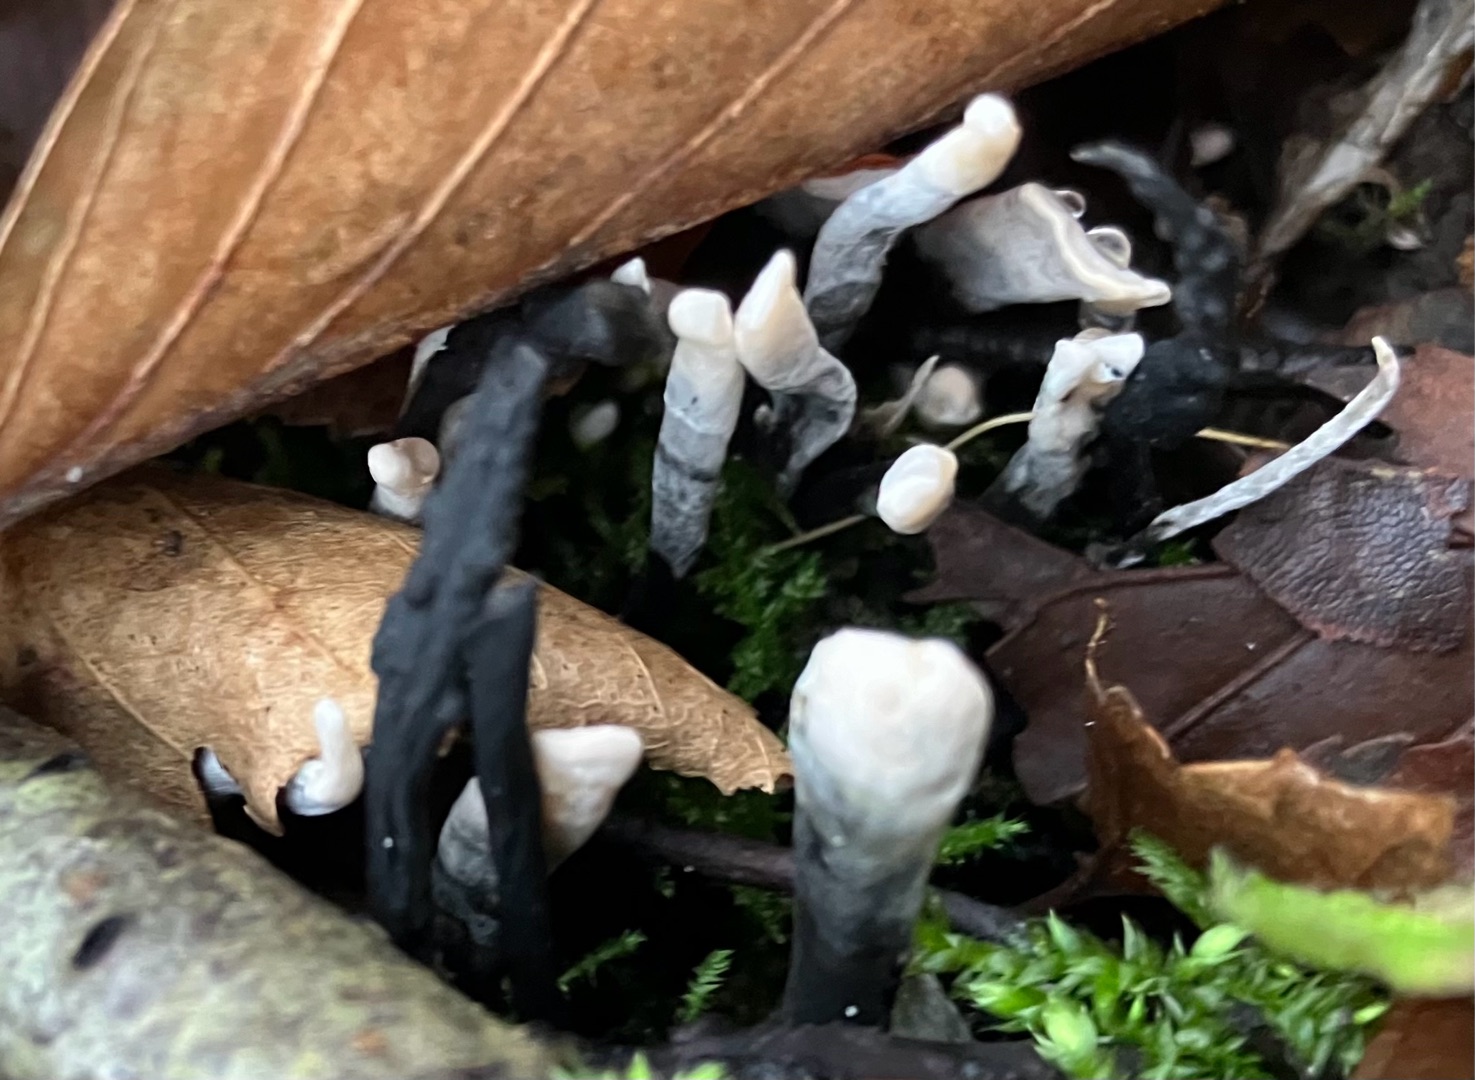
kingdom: Fungi
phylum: Ascomycota
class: Sordariomycetes
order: Xylariales
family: Xylariaceae
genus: Xylaria
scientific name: Xylaria hypoxylon
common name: Grenet stødsvamp
